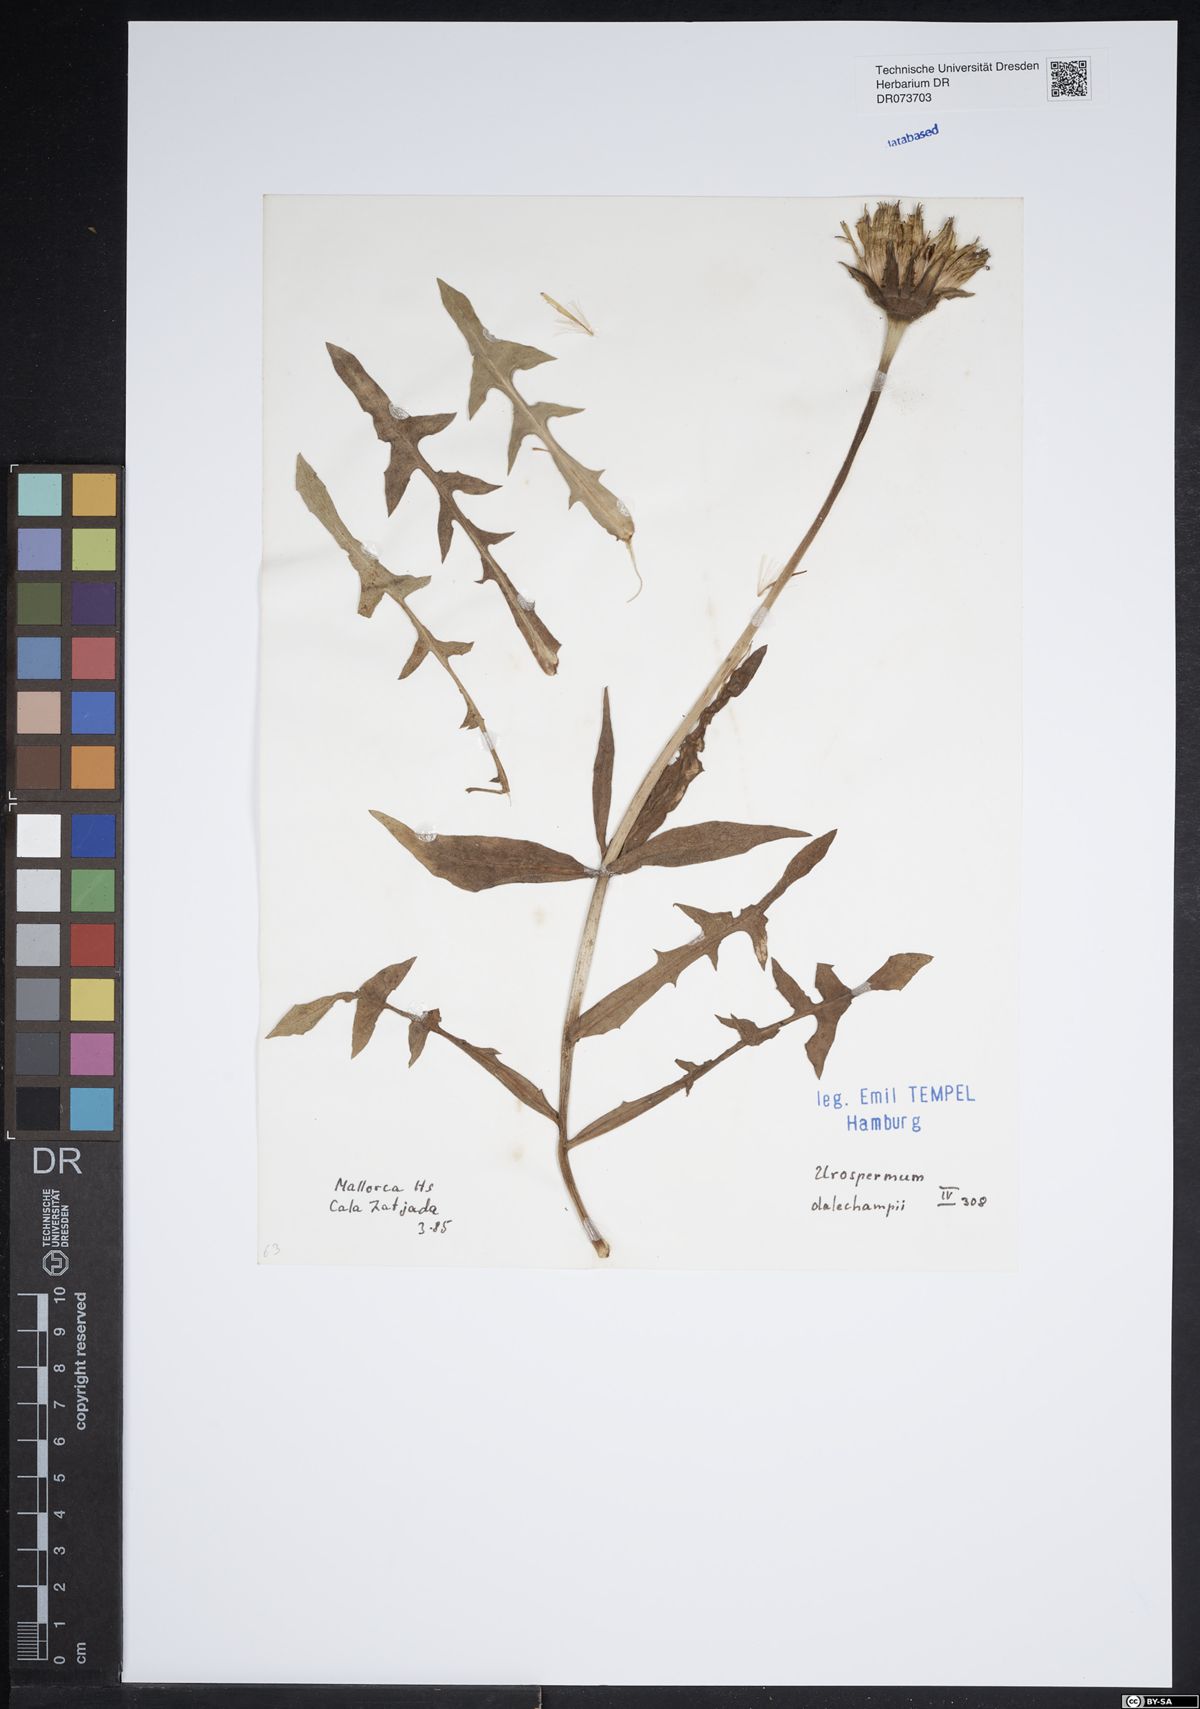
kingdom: Plantae
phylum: Tracheophyta
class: Magnoliopsida
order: Asterales
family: Asteraceae
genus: Urospermum
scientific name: Urospermum dalechampii
